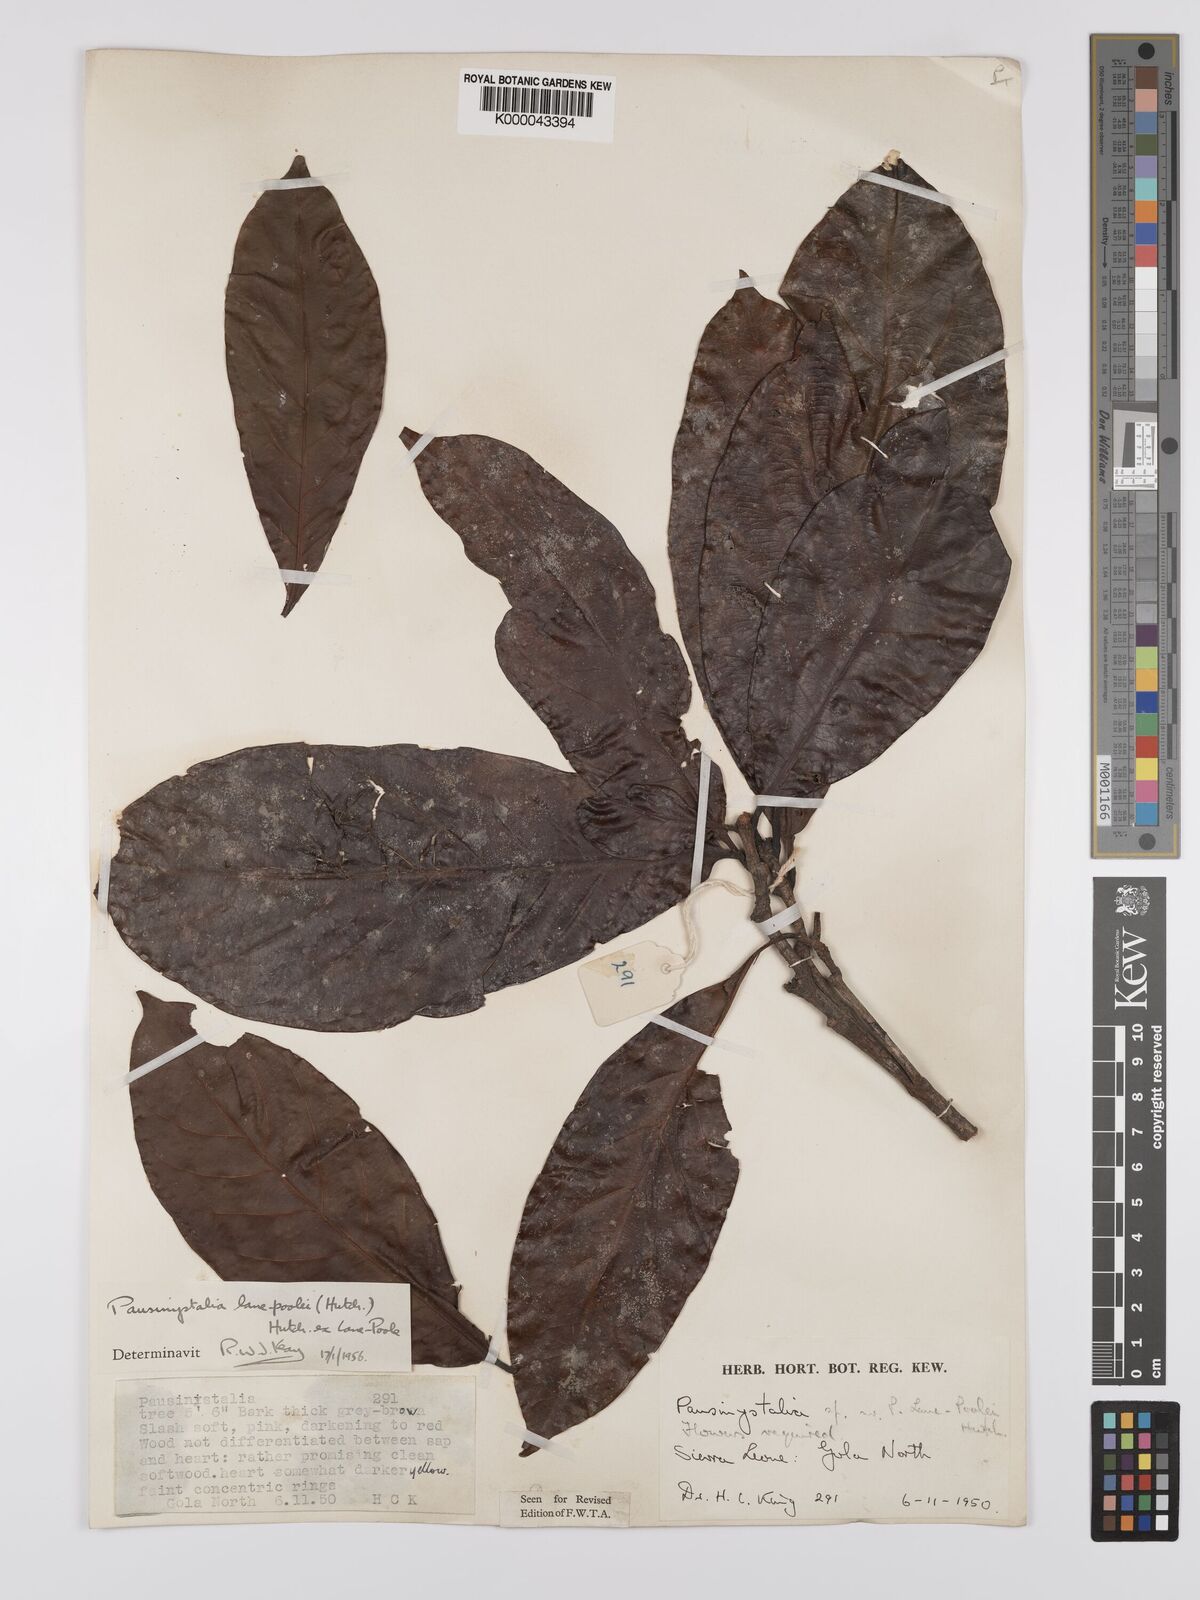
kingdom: Plantae
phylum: Tracheophyta
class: Magnoliopsida
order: Gentianales
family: Rubiaceae
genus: Corynanthe
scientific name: Corynanthe lane-poolei
